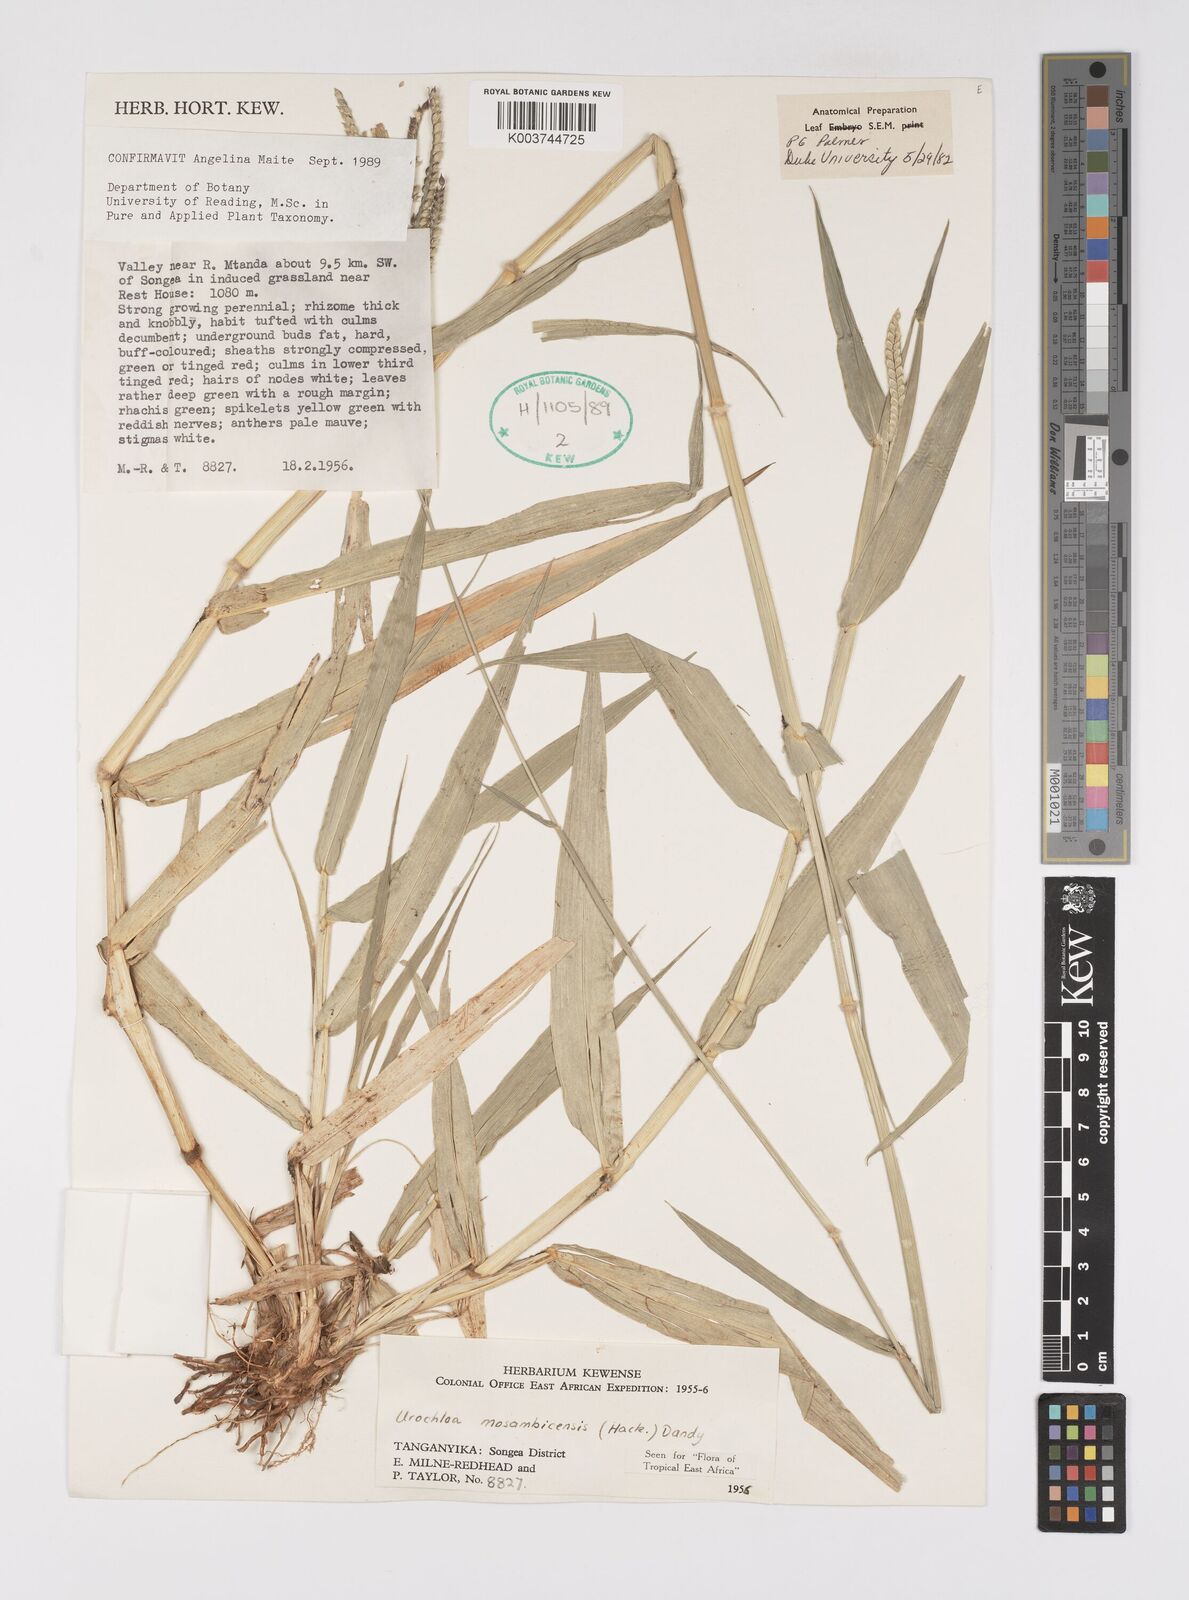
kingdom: Plantae
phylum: Tracheophyta
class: Liliopsida
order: Poales
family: Poaceae
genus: Urochloa
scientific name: Urochloa trichopus
